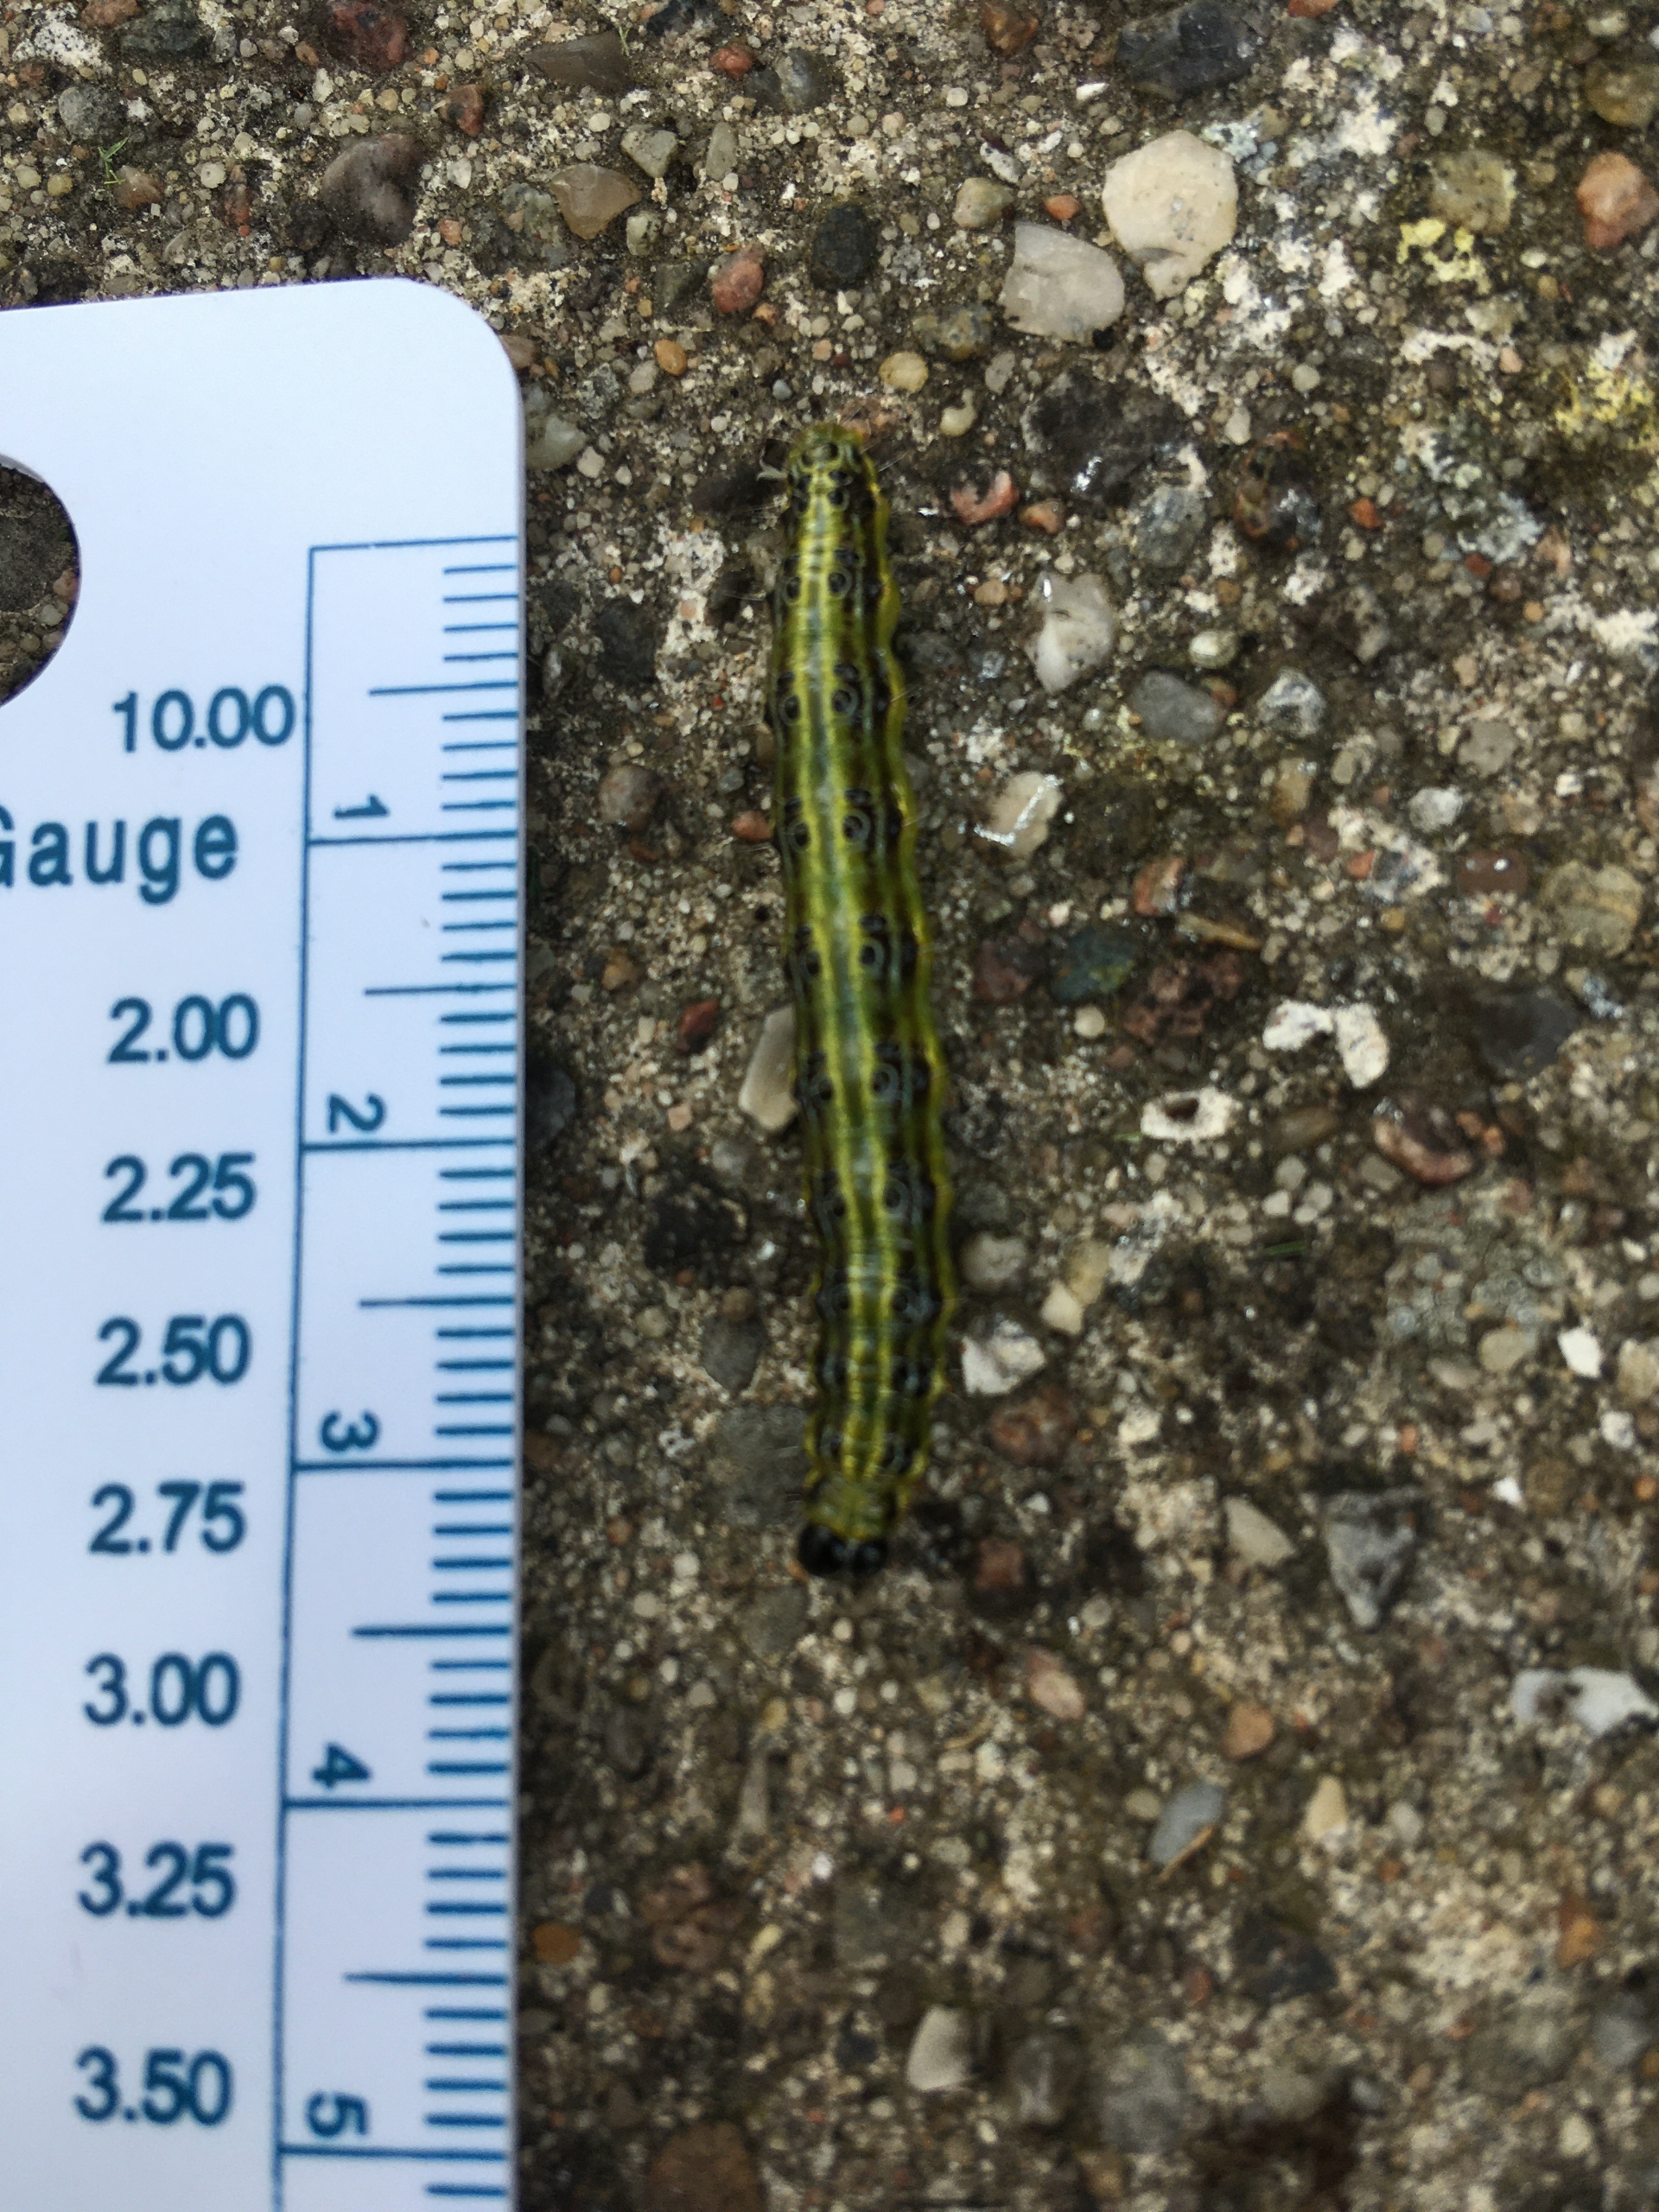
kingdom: Animalia
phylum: Arthropoda
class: Insecta
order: Lepidoptera
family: Crambidae
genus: Cydalima
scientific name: Cydalima perspectalis
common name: Buksbomhalvmøl
